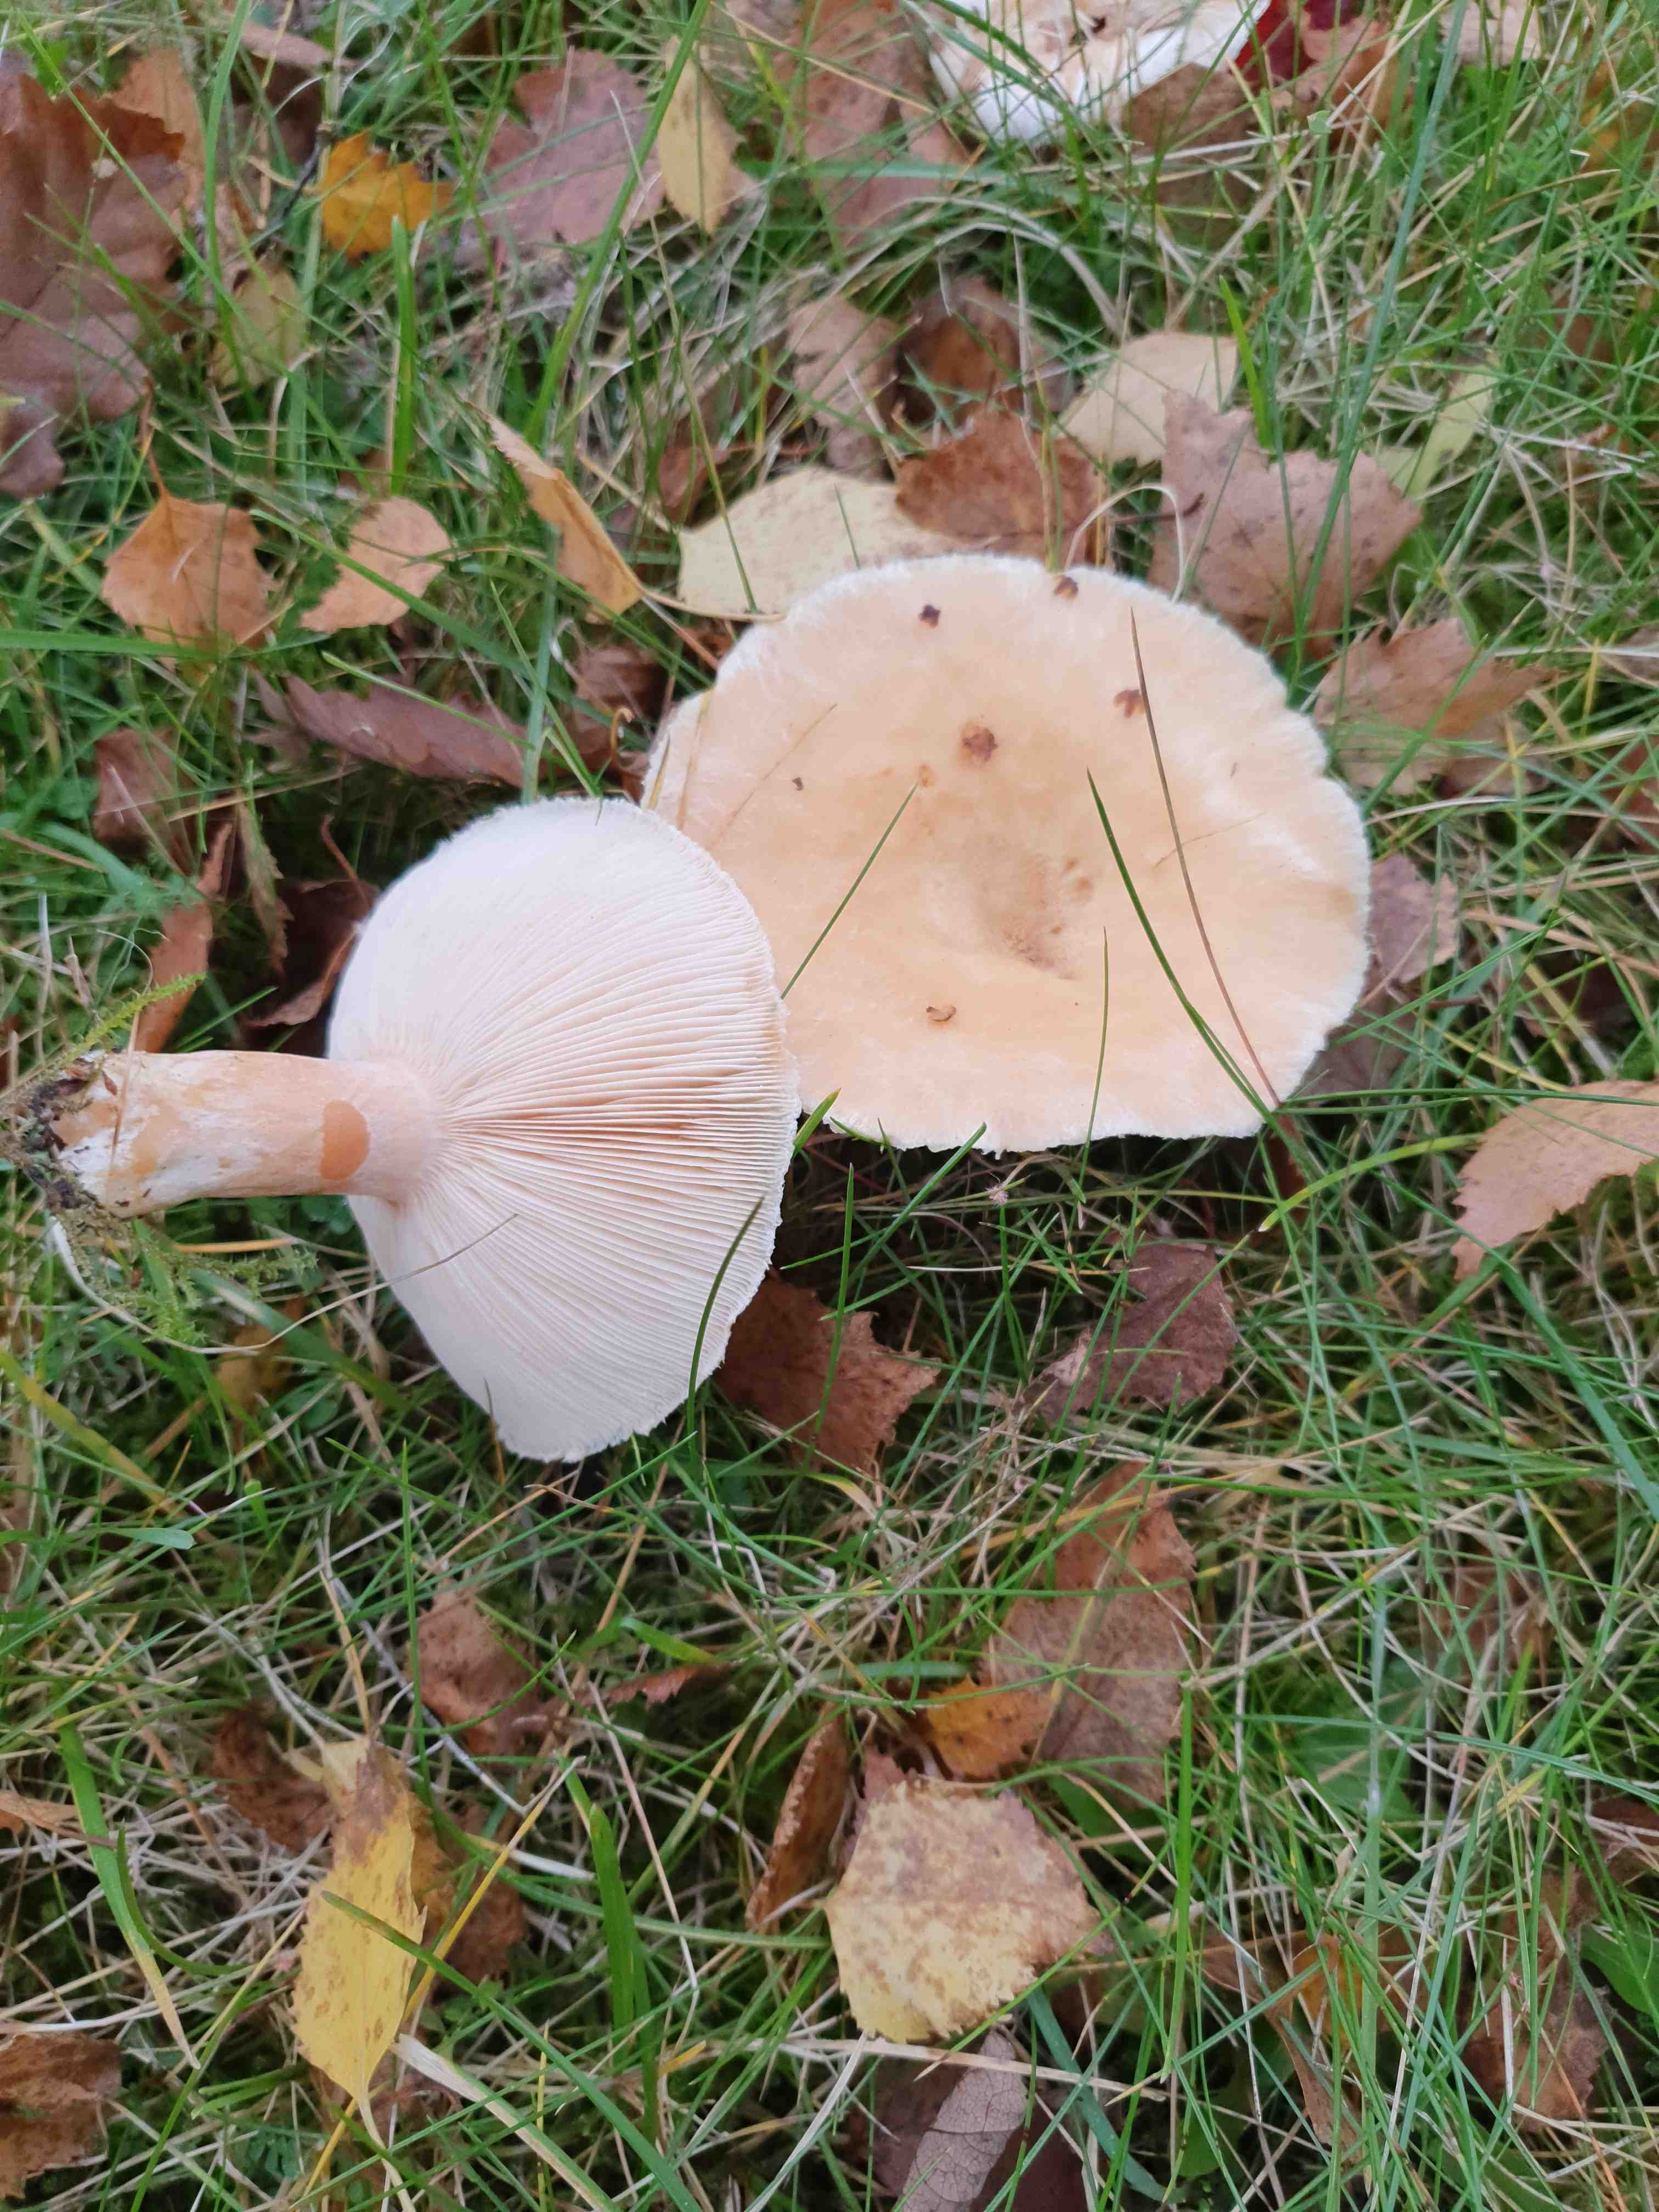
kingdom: Fungi
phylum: Basidiomycota
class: Agaricomycetes
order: Russulales
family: Russulaceae
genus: Lactarius
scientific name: Lactarius pubescens
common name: dunet mælkehat
